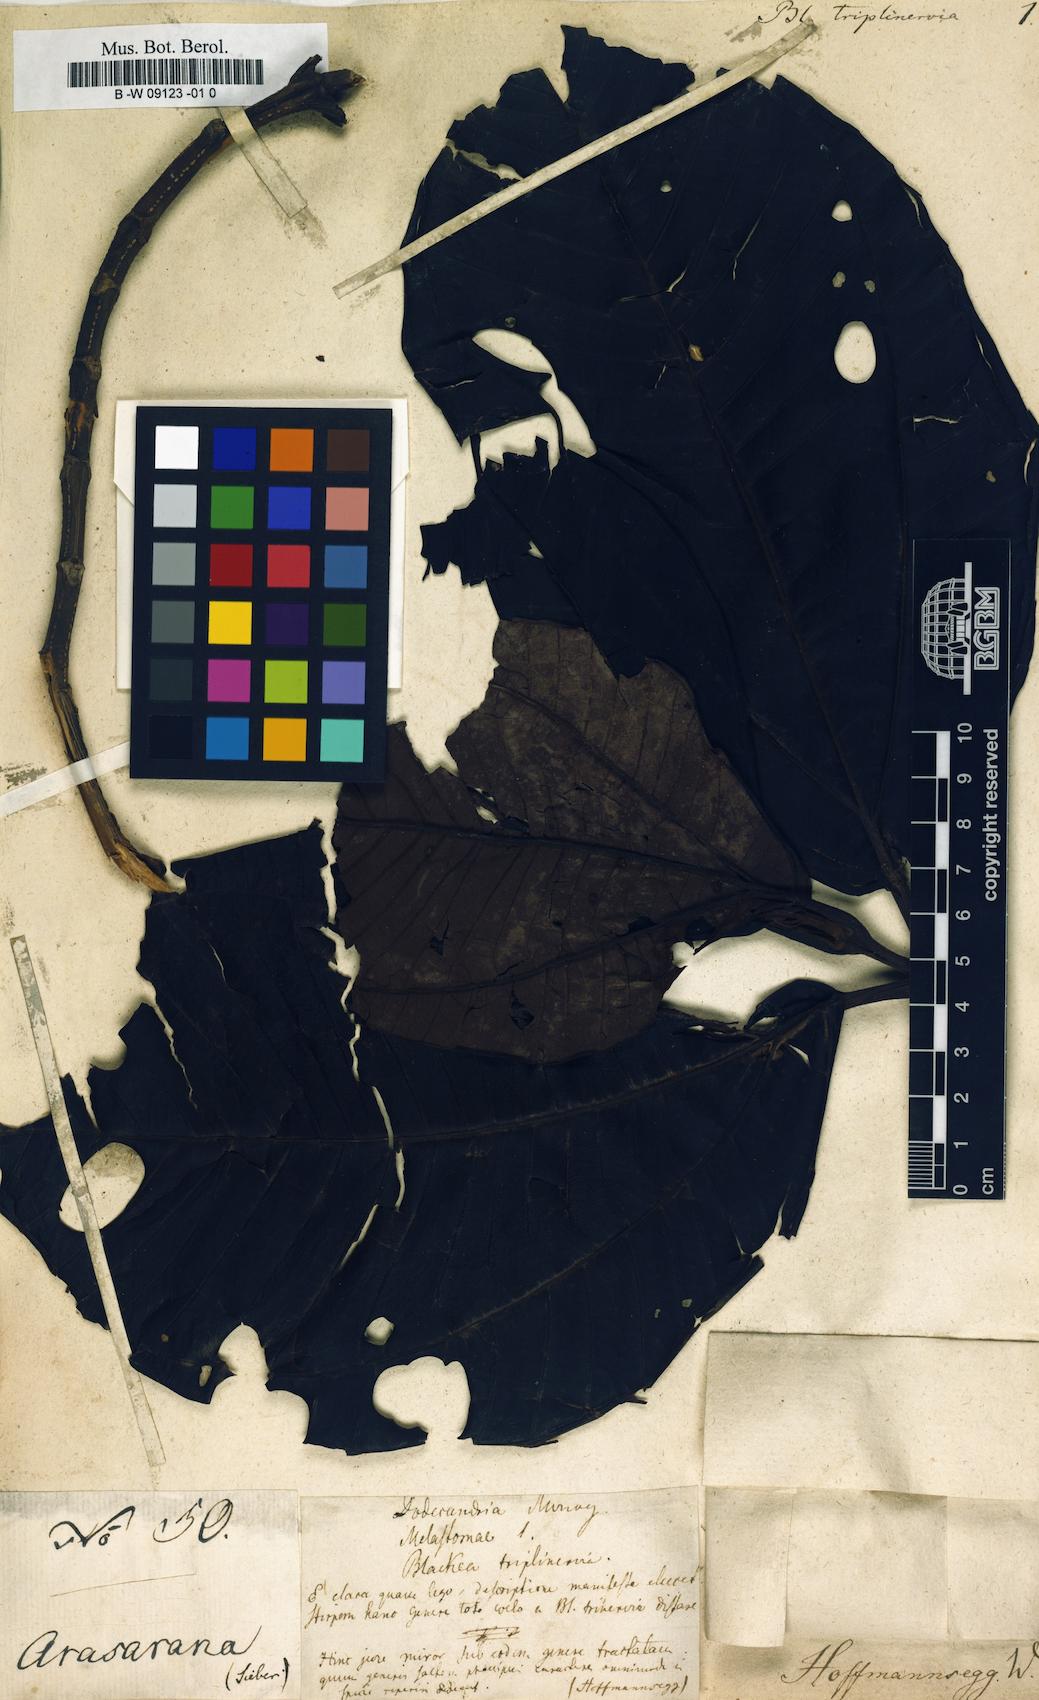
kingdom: Plantae
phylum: Tracheophyta
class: Magnoliopsida
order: Myrtales
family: Melastomataceae
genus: Bellucia
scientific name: Bellucia grossularioides
